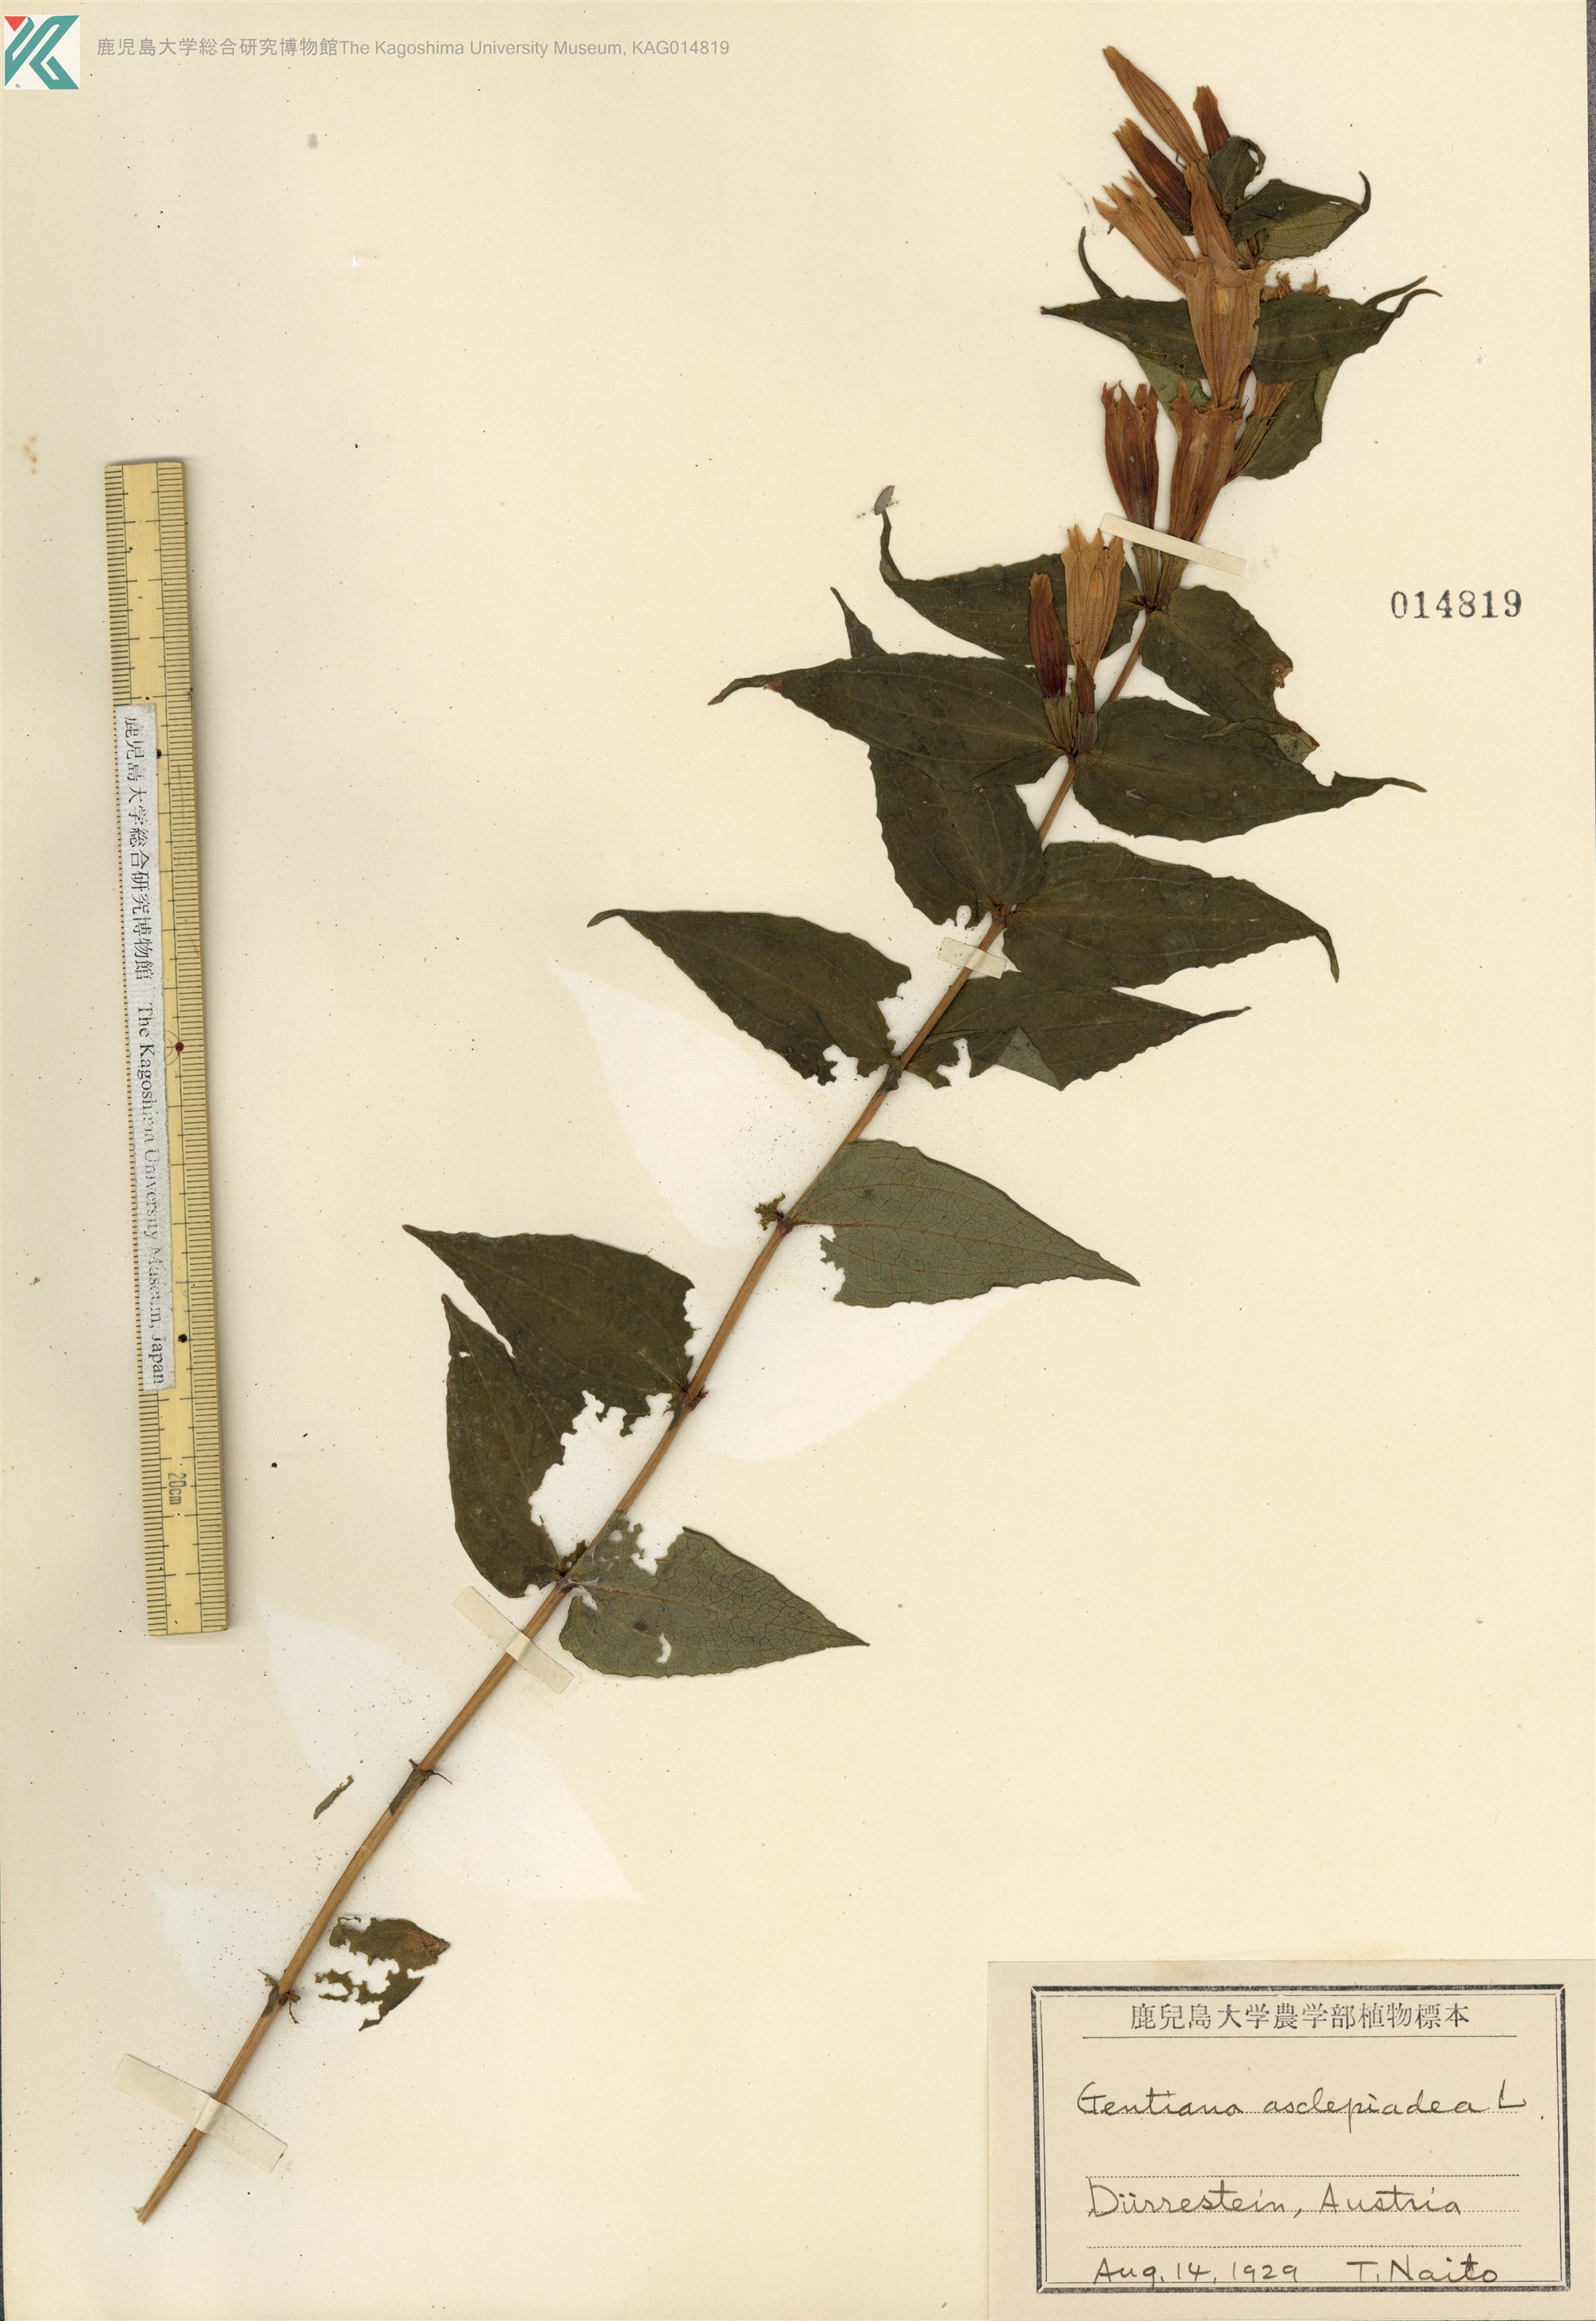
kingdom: Plantae
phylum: Tracheophyta
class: Magnoliopsida
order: Gentianales
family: Gentianaceae
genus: Gentiana
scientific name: Gentiana asclepiadea
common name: Willow gentian
